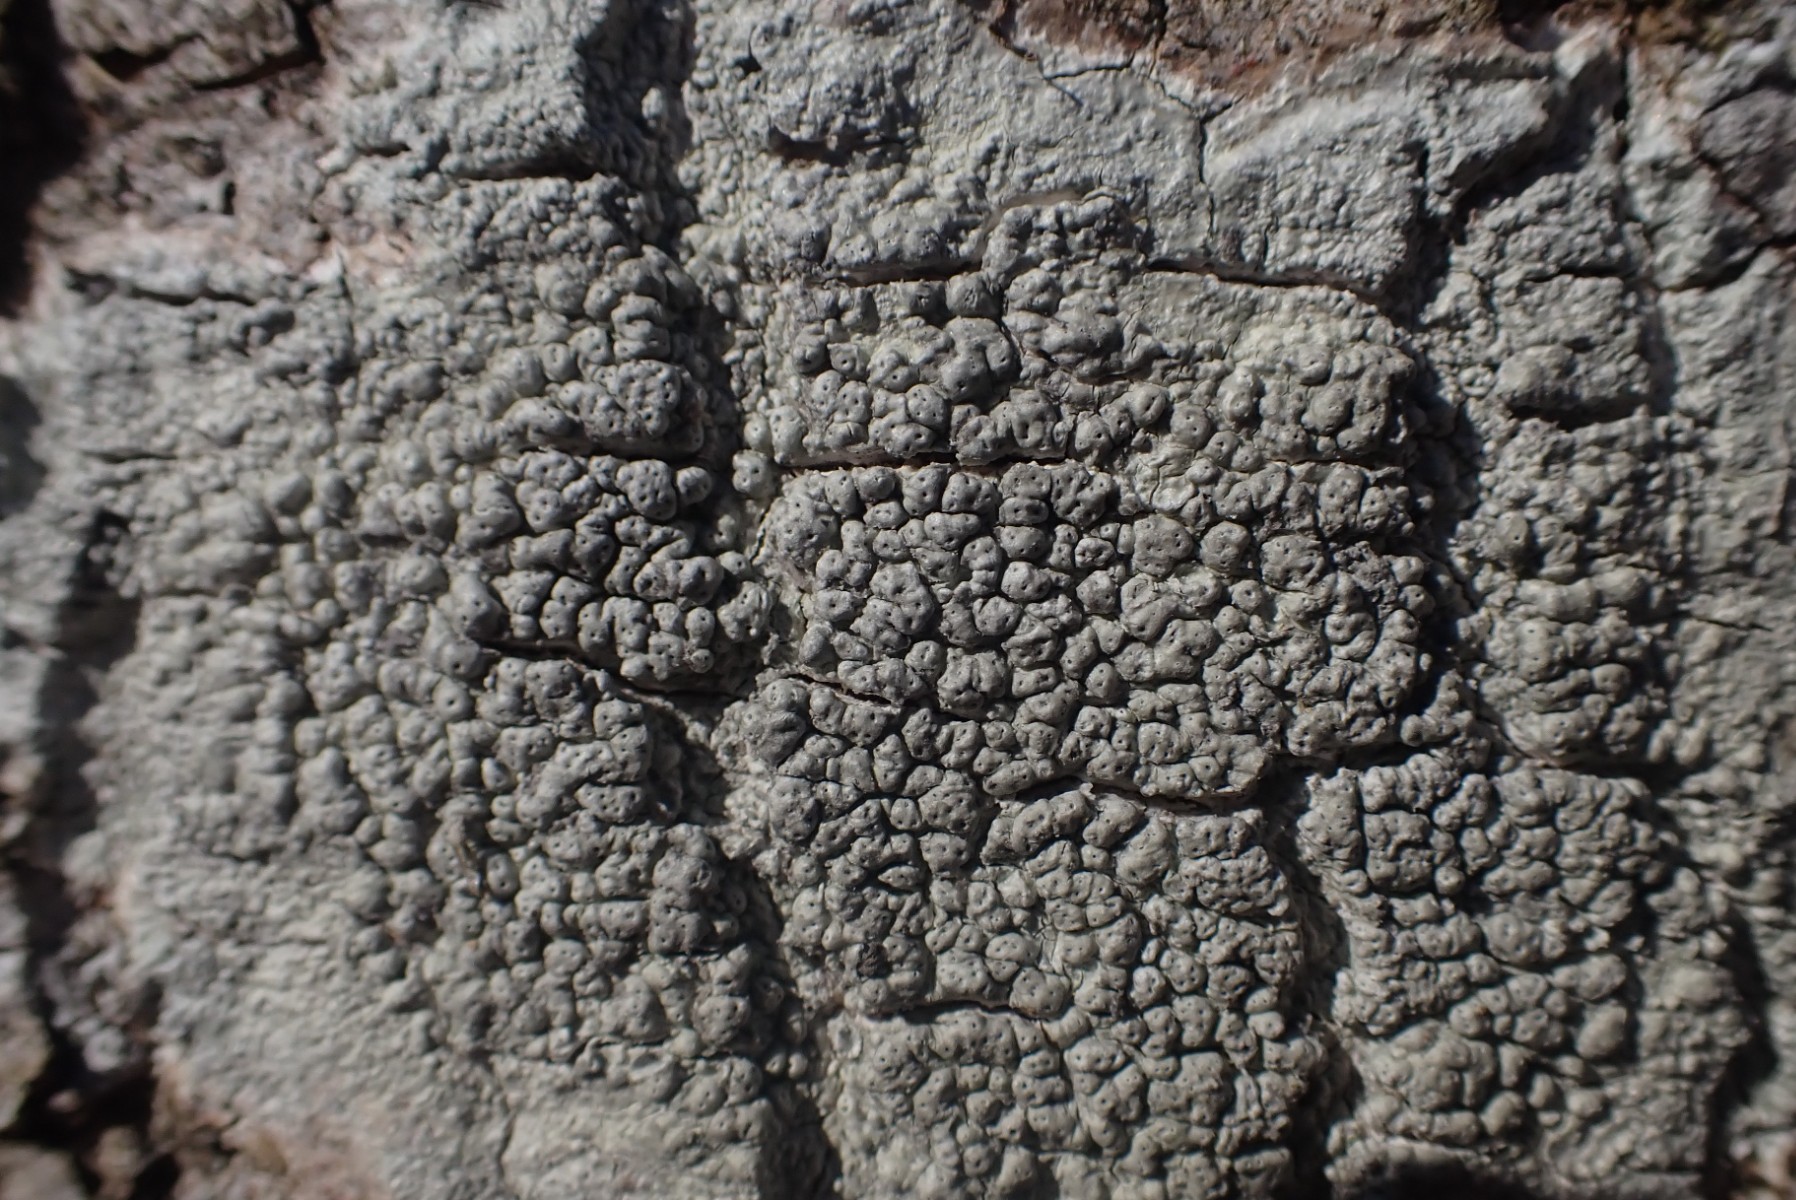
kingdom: Fungi
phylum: Ascomycota
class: Lecanoromycetes
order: Pertusariales
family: Pertusariaceae
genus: Pertusaria
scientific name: Pertusaria pertusa
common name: almindelig prikvortelav
